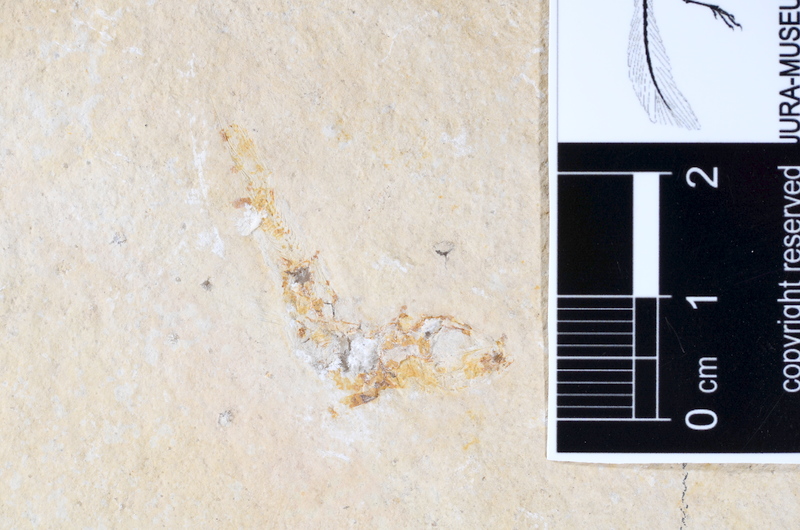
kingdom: Animalia
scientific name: Animalia
